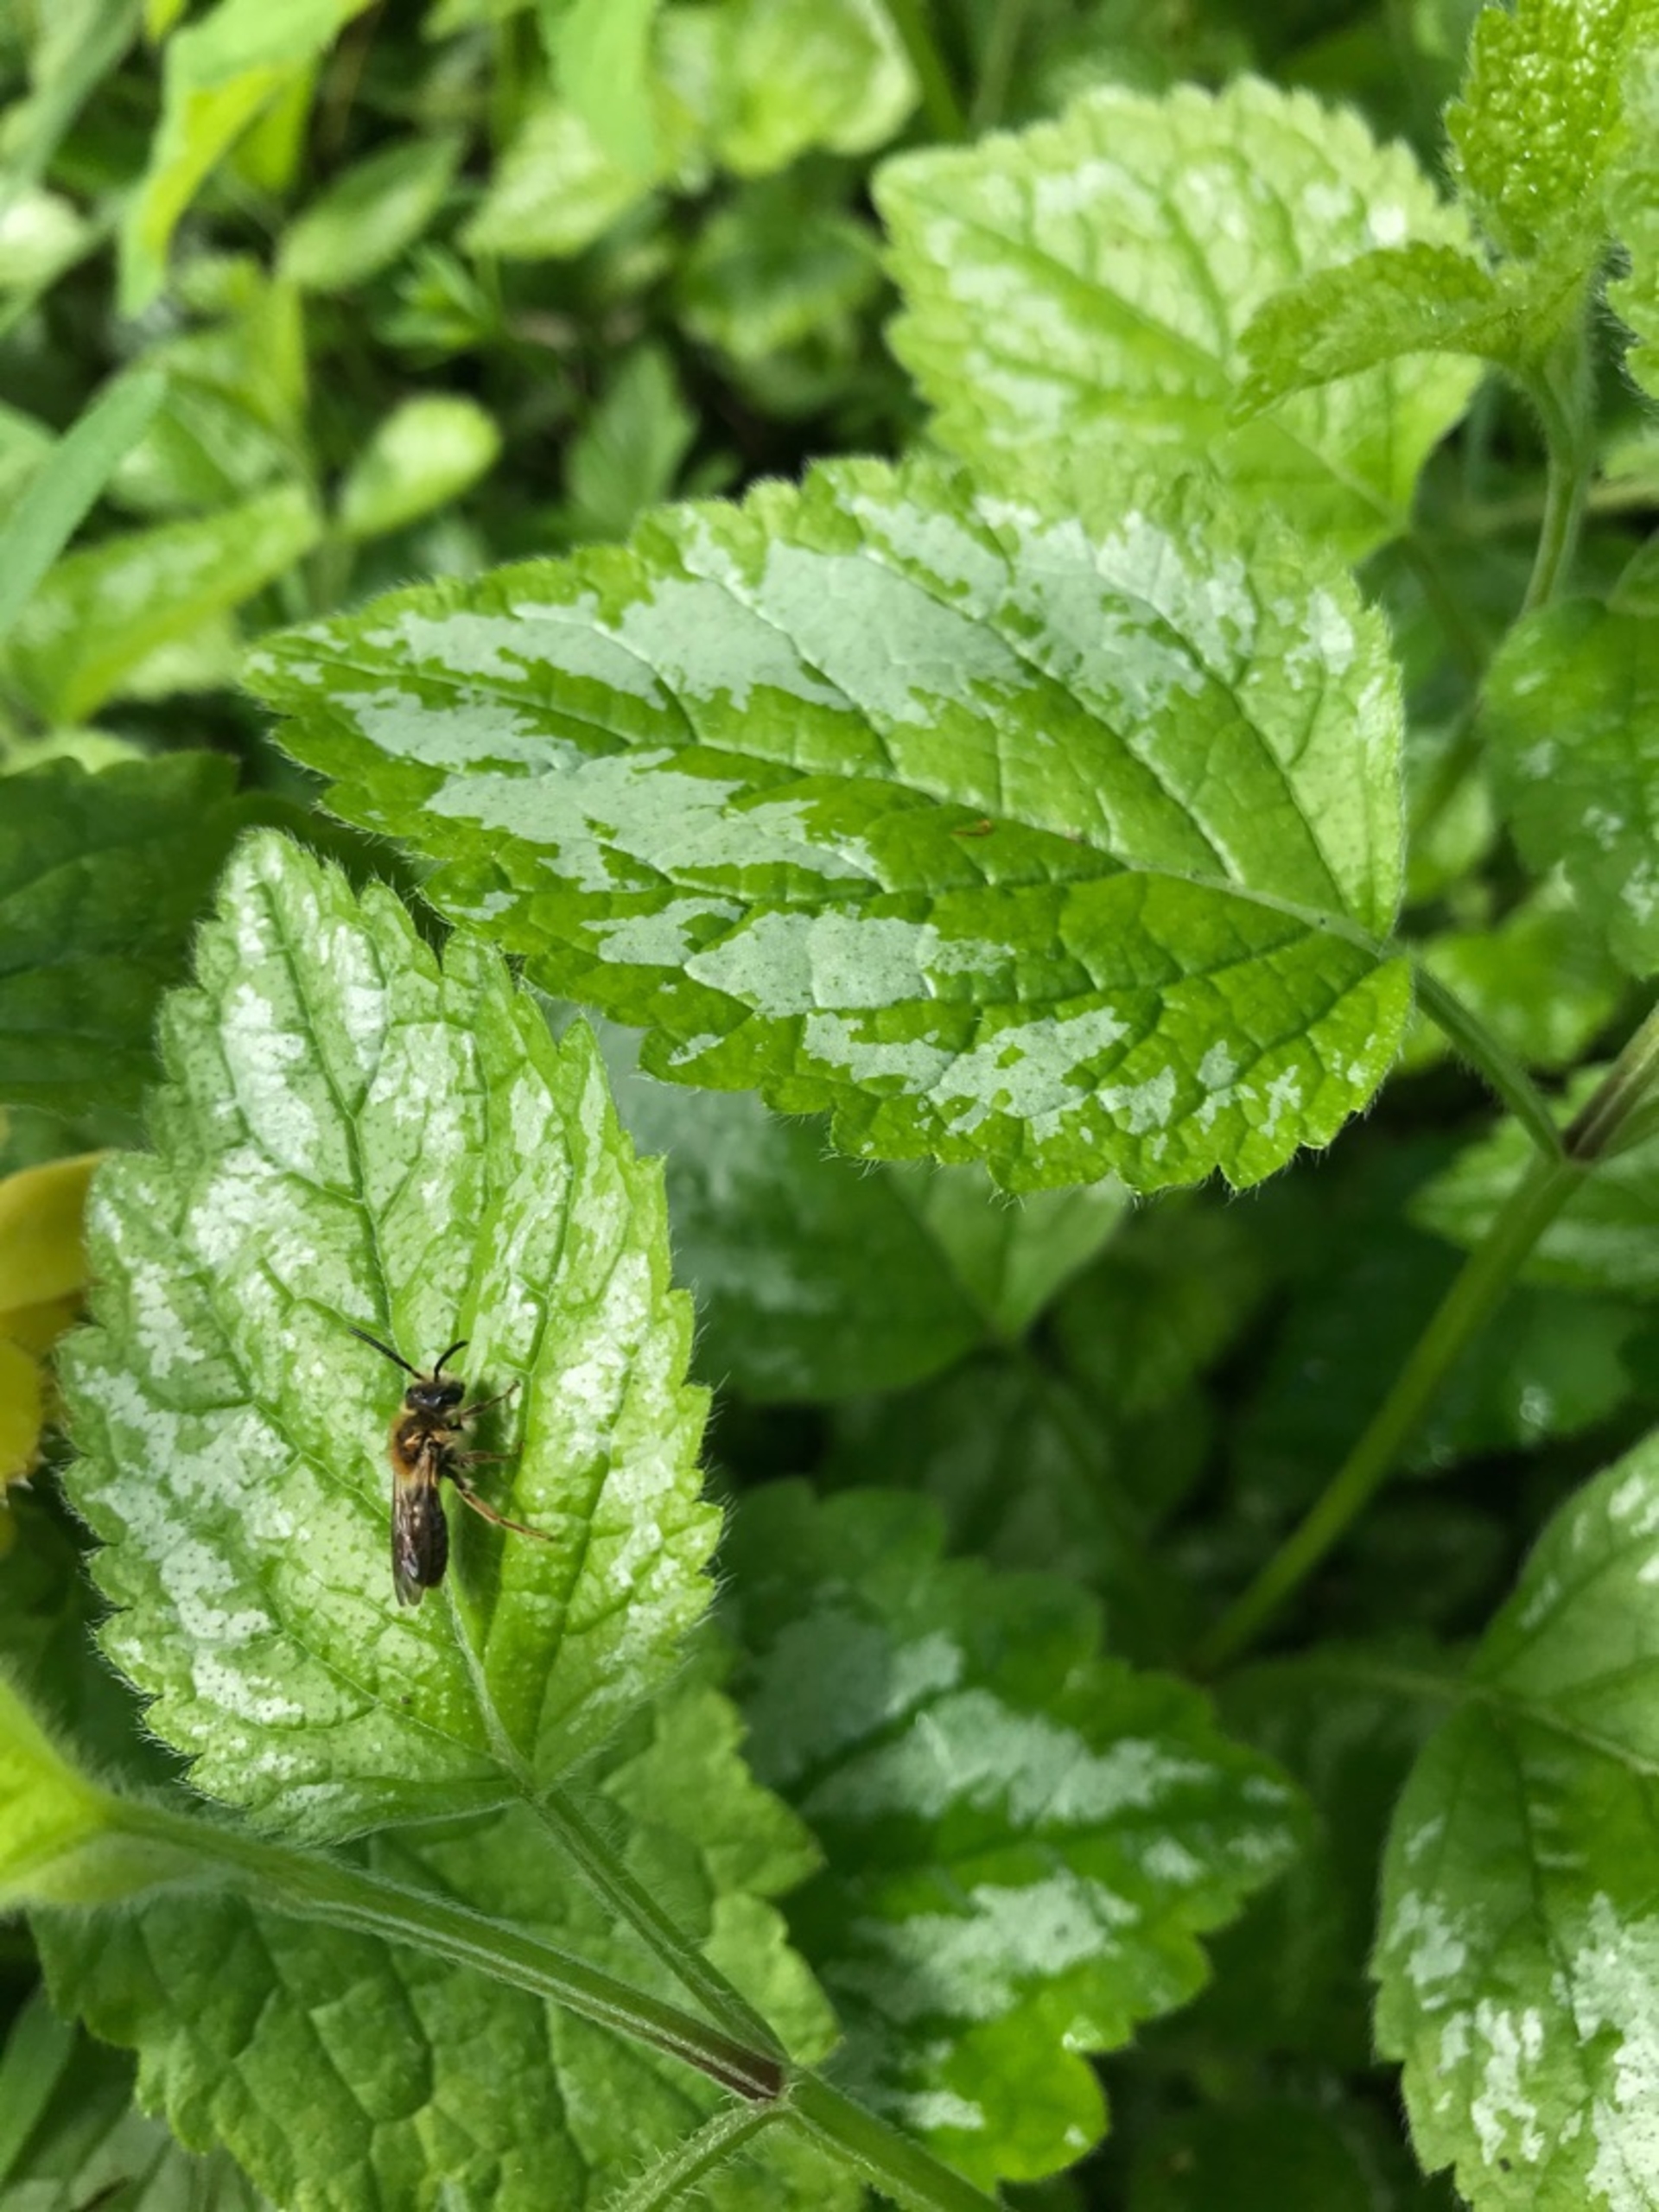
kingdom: Animalia
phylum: Arthropoda
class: Insecta
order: Hymenoptera
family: Andrenidae
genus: Andrena
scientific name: Andrena
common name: Jordbier
